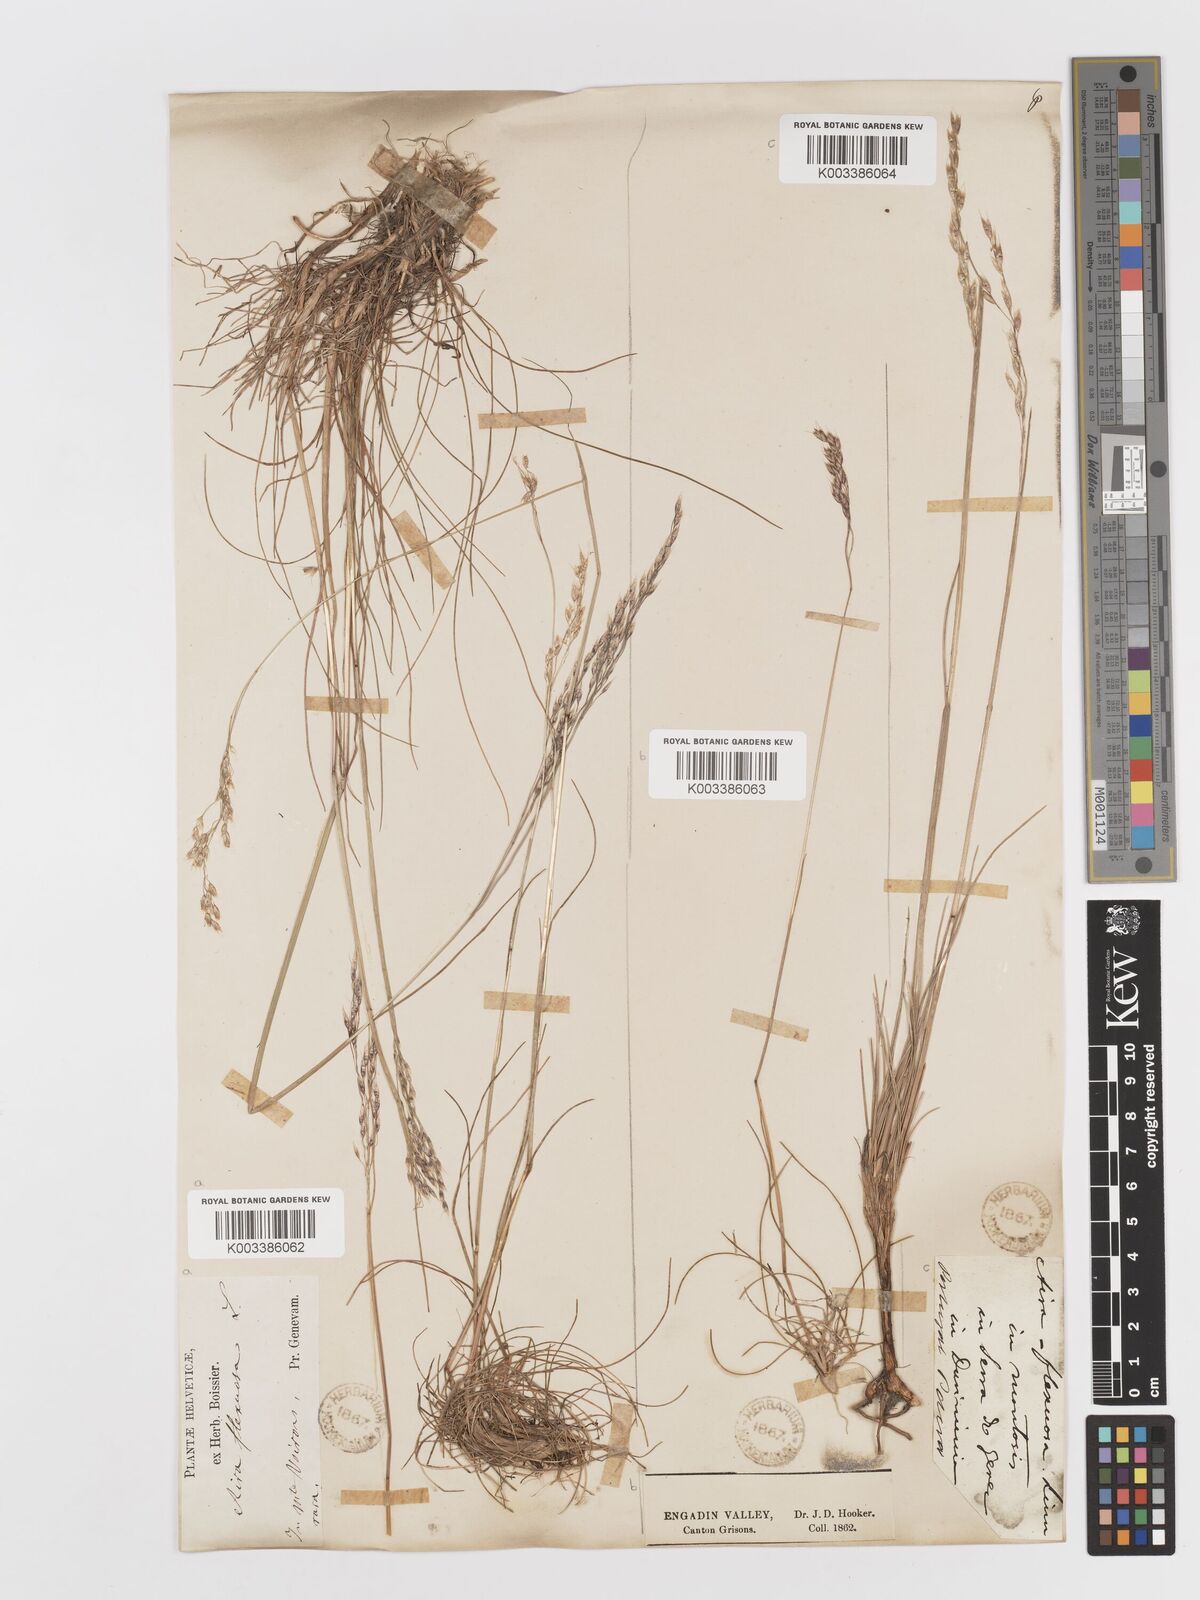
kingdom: Plantae
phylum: Tracheophyta
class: Liliopsida
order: Poales
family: Poaceae
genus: Avenella
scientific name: Avenella flexuosa
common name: Wavy hairgrass
